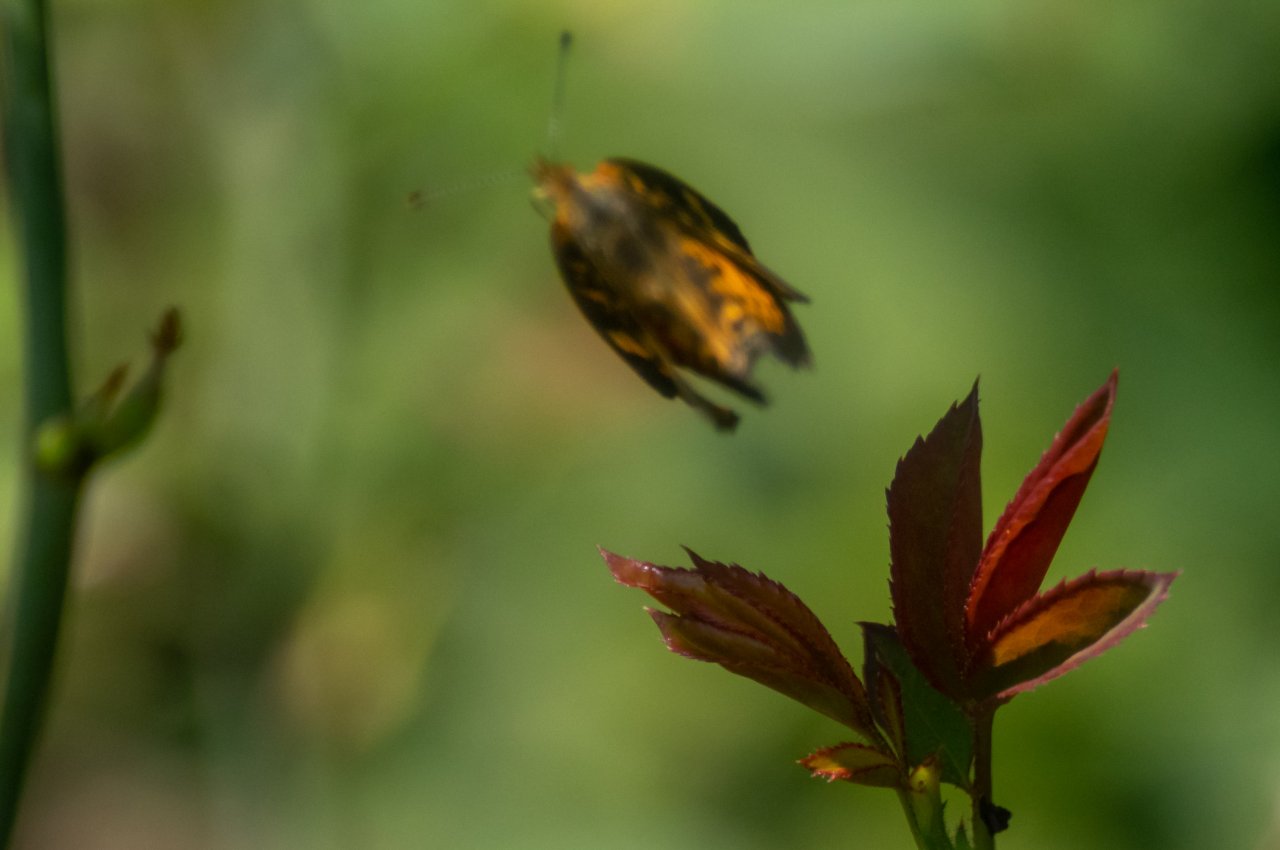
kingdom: Animalia
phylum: Arthropoda
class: Insecta
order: Lepidoptera
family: Nymphalidae
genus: Phyciodes
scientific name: Phyciodes tharos
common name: Pearl Crescent
